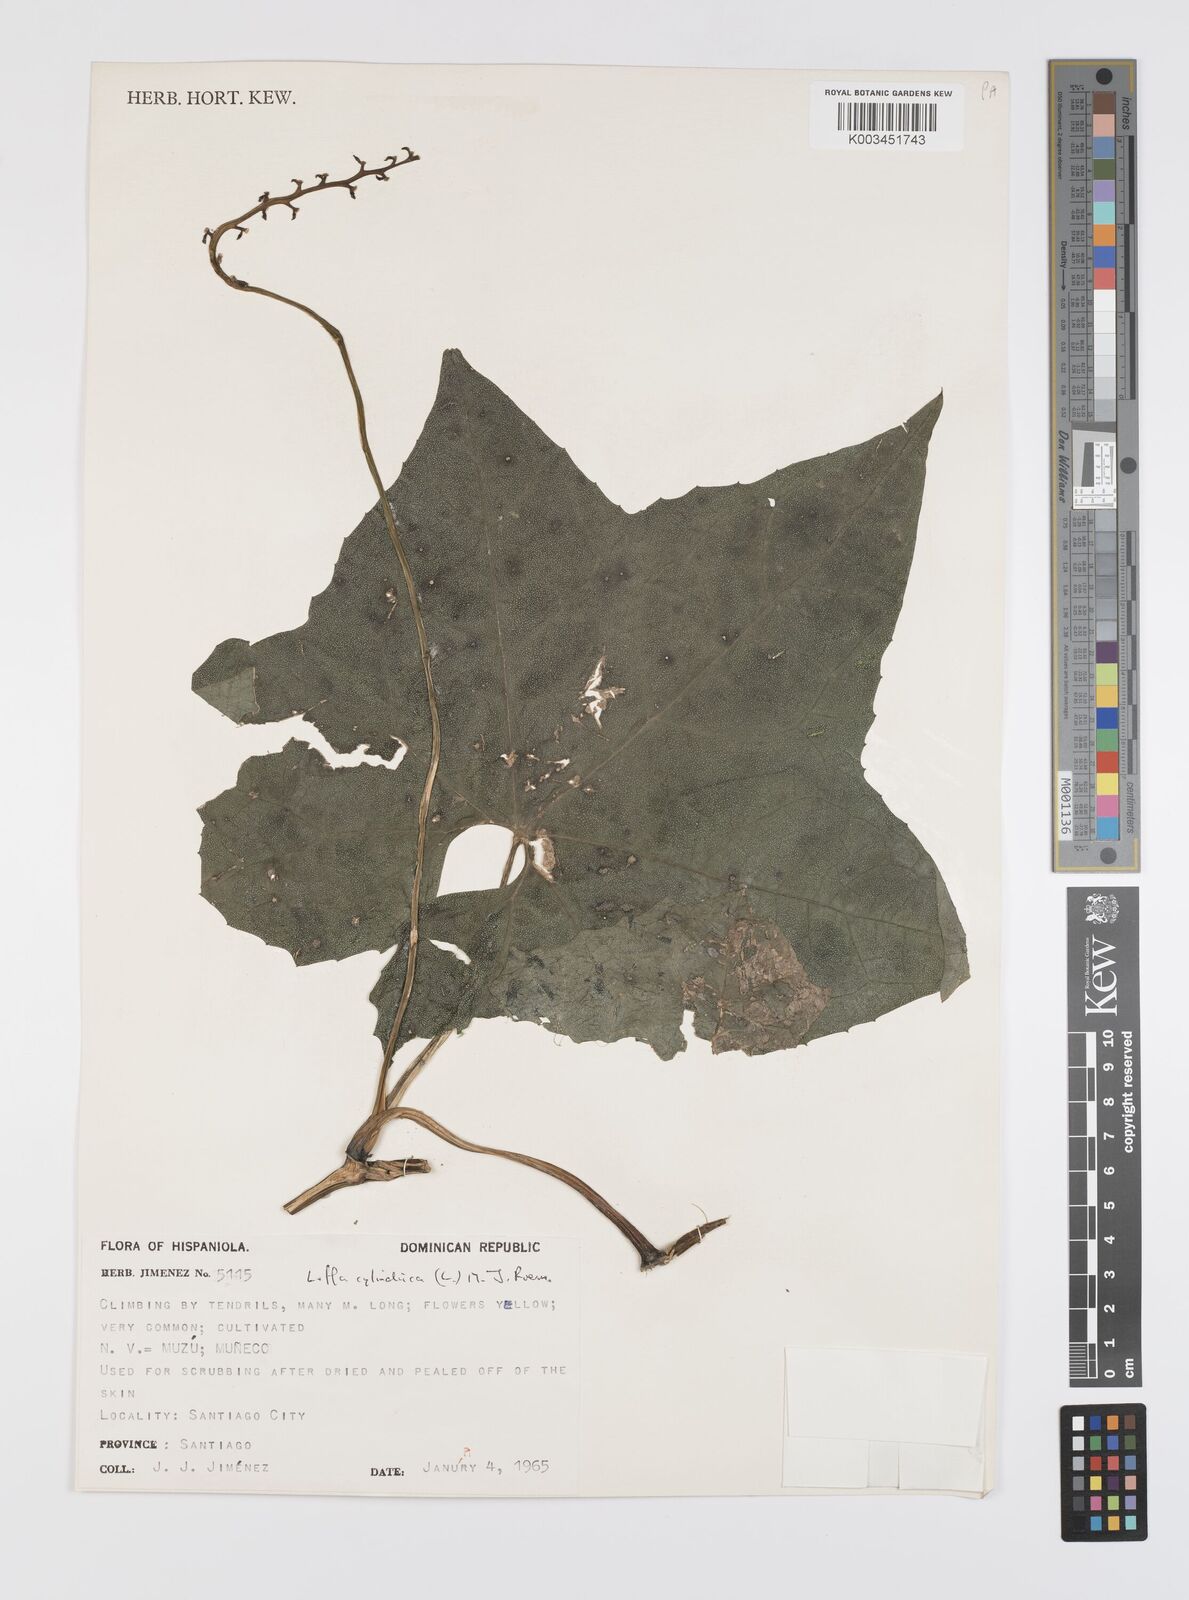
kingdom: Plantae
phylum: Tracheophyta
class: Magnoliopsida
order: Cucurbitales
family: Cucurbitaceae
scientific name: Cucurbitaceae
